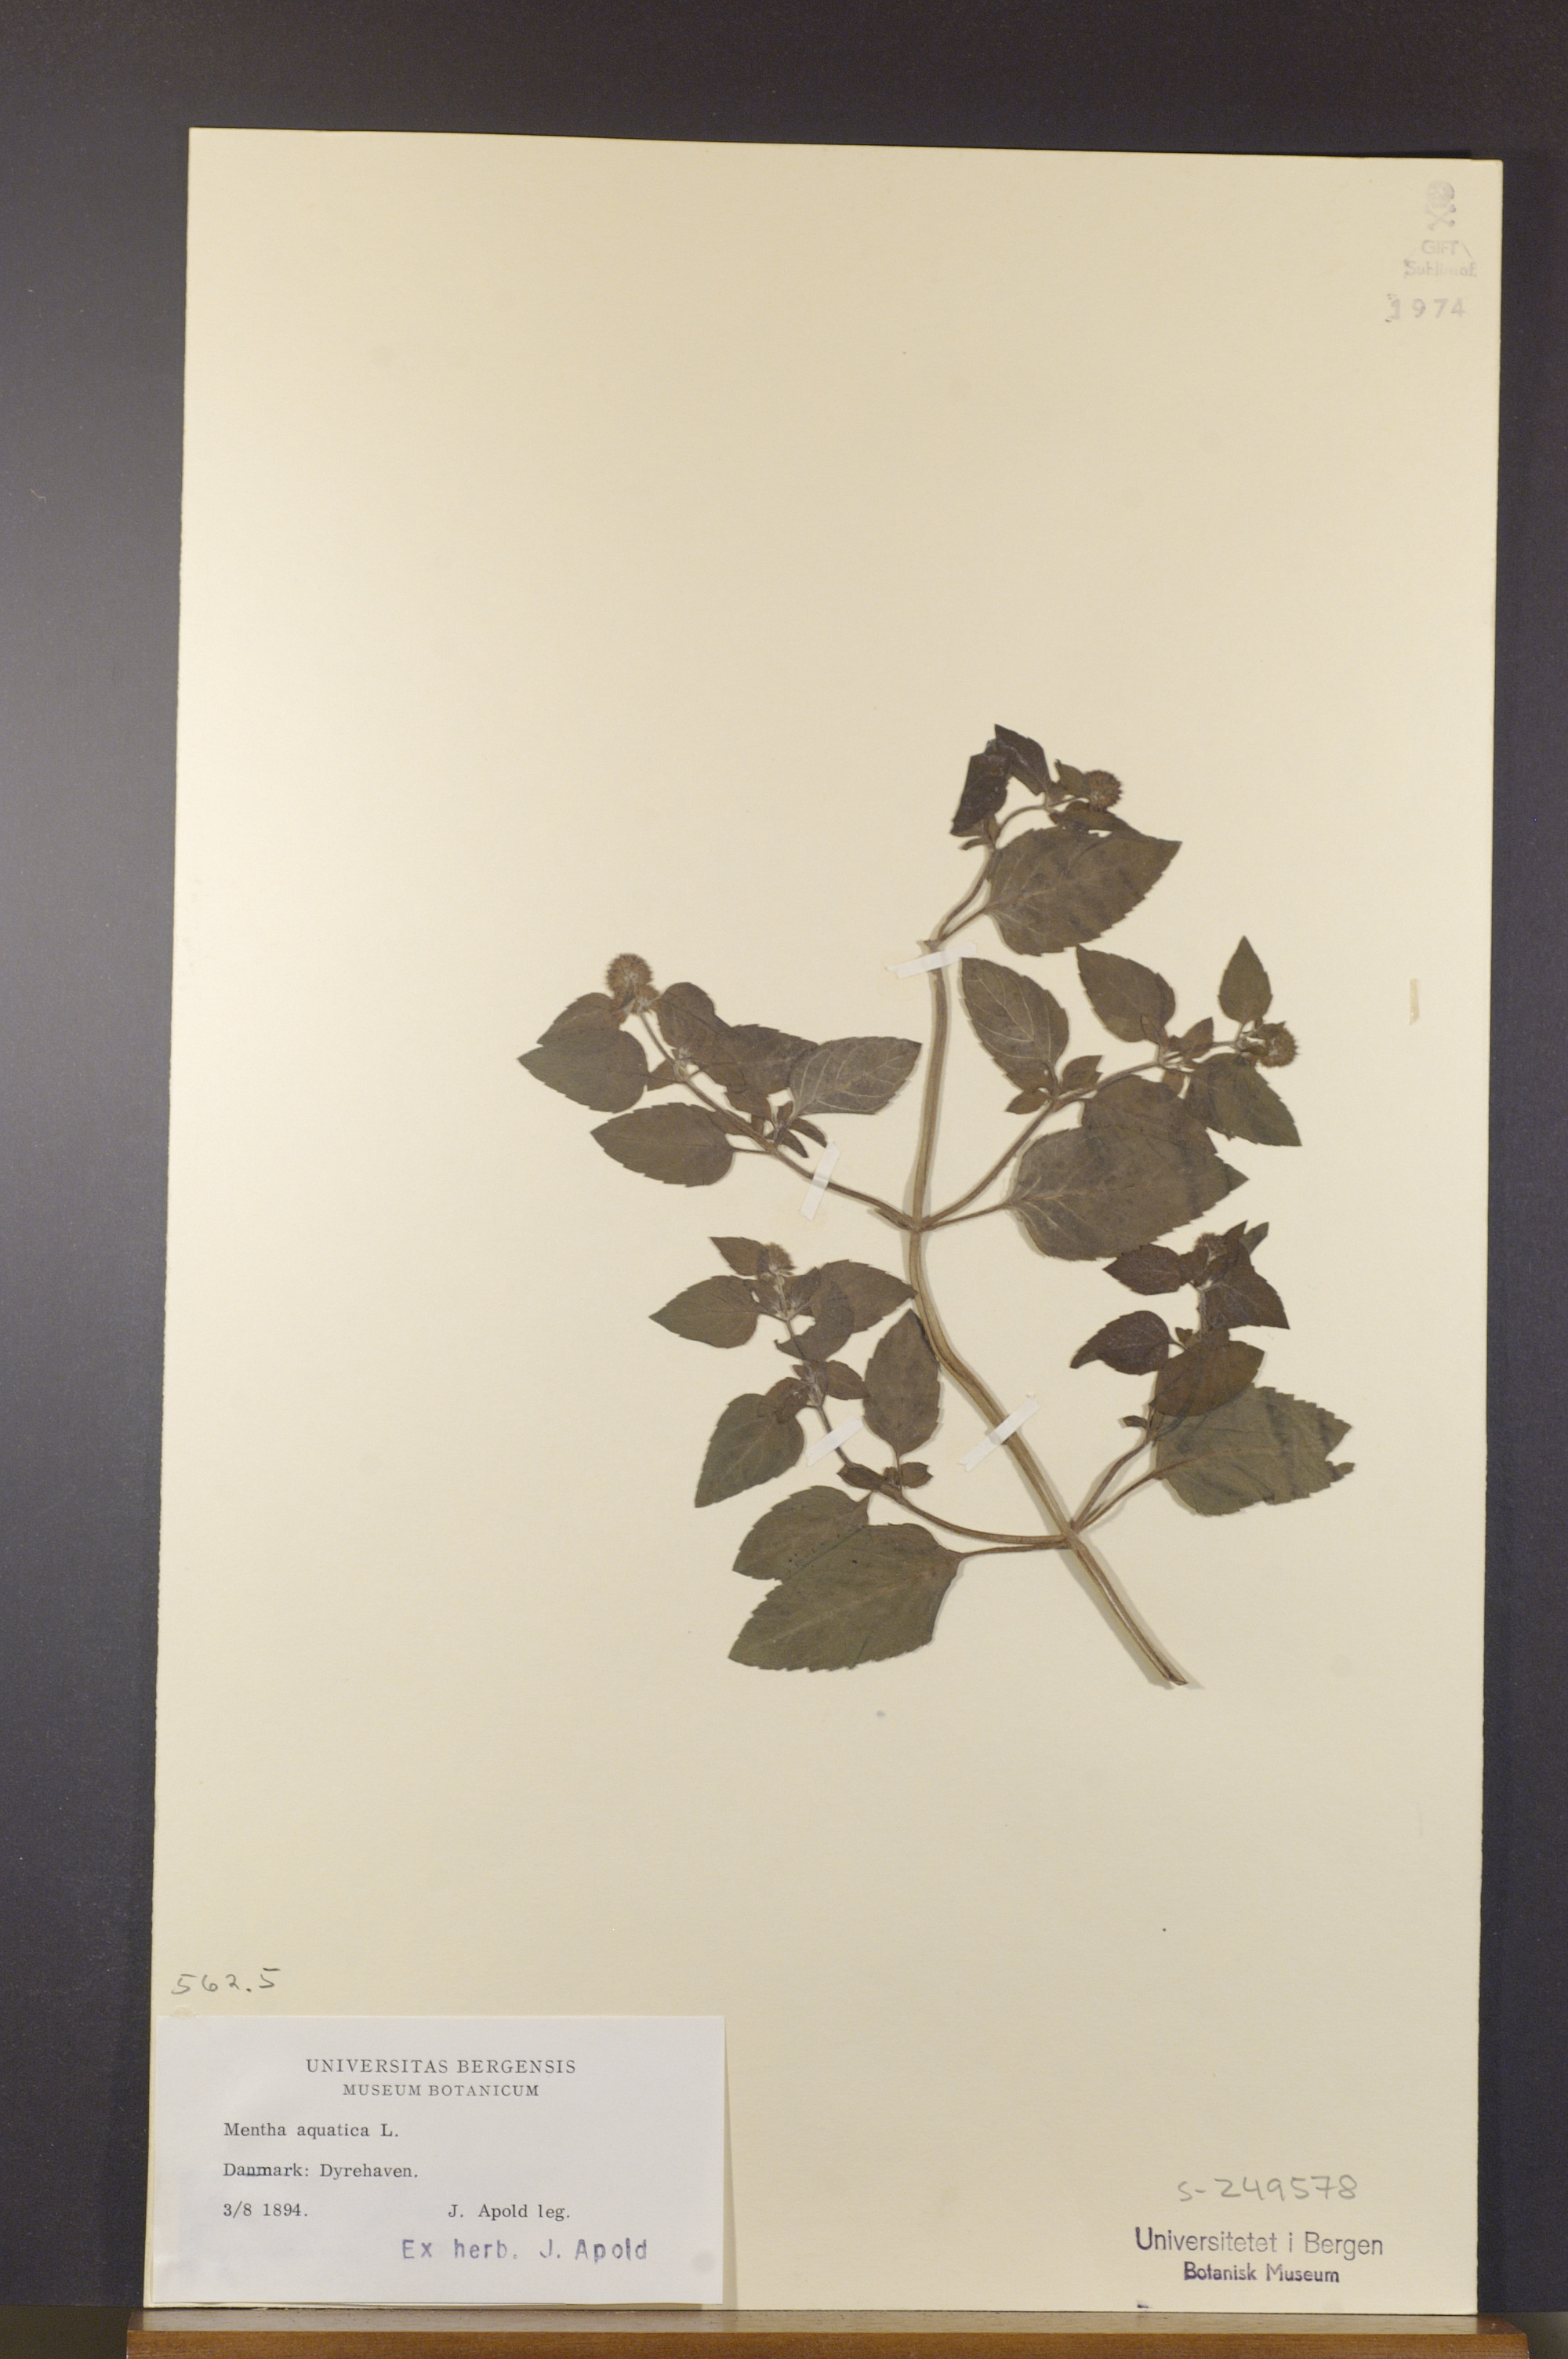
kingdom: Plantae
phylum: Tracheophyta
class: Magnoliopsida
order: Lamiales
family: Lamiaceae
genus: Mentha
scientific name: Mentha aquatica
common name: Water mint
